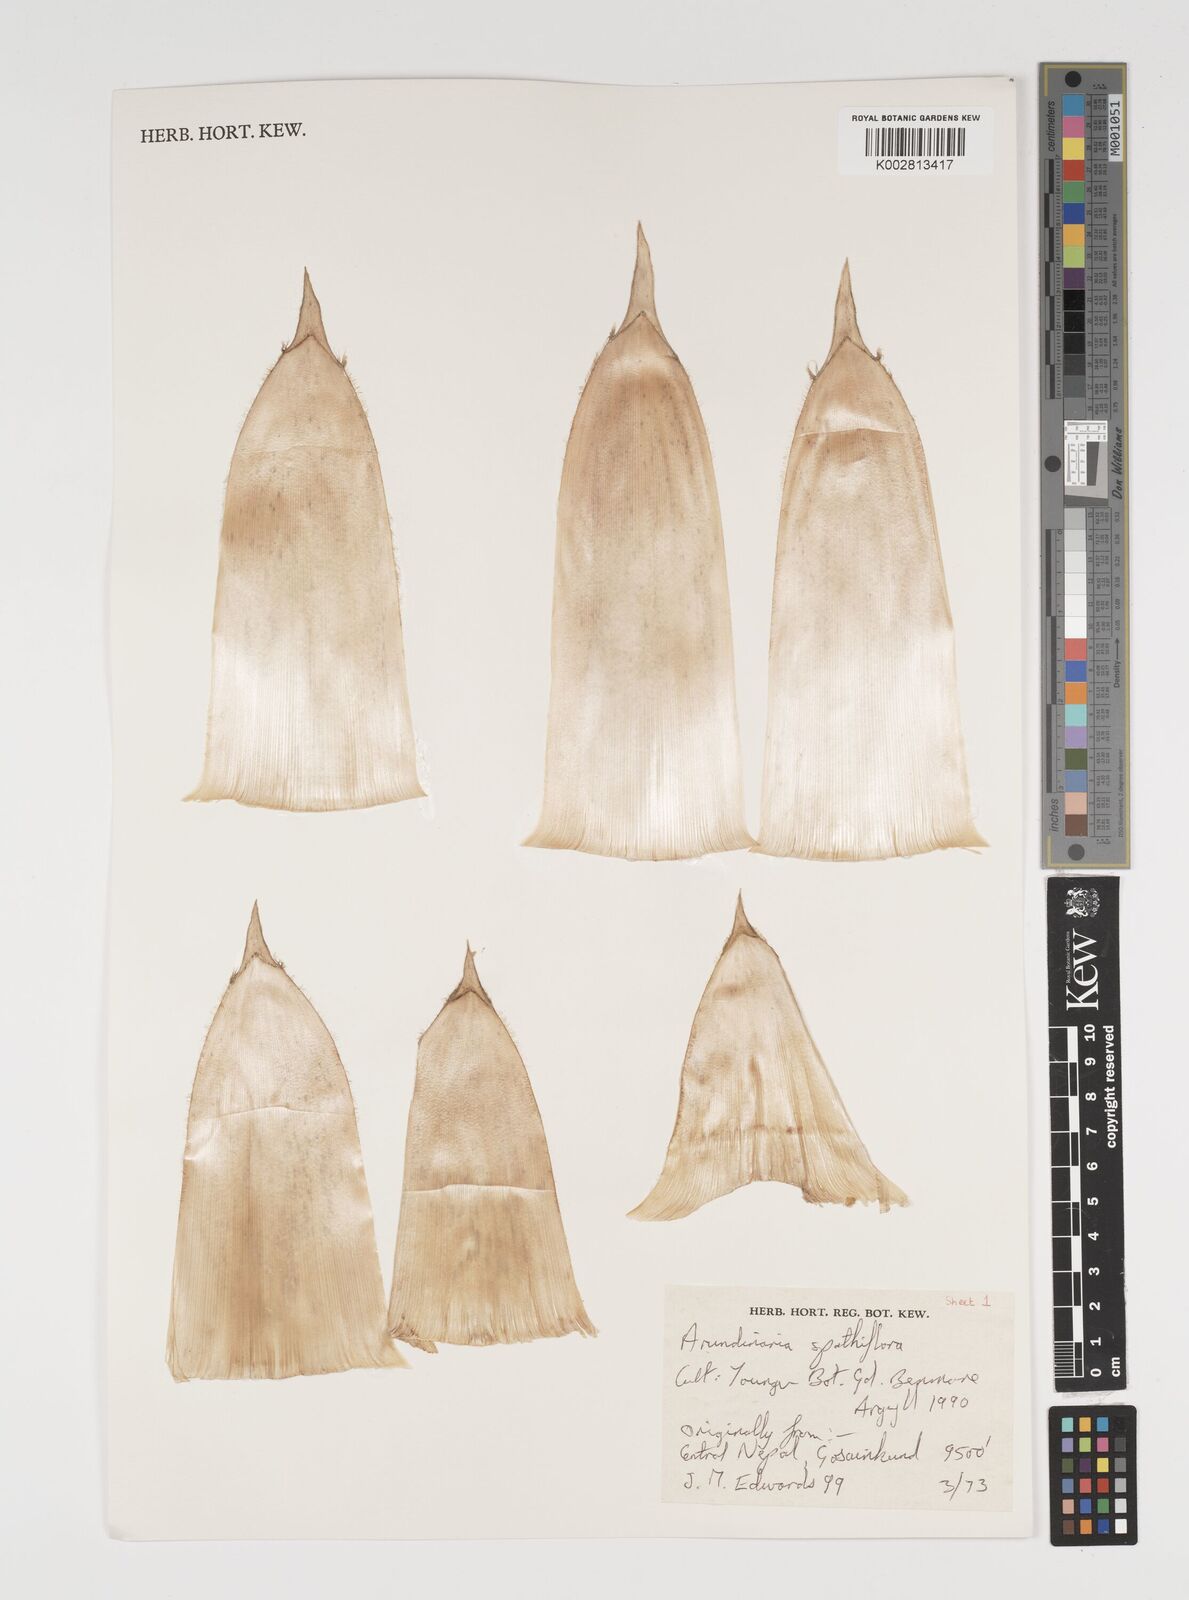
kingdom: Plantae
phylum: Tracheophyta
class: Liliopsida
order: Poales
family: Poaceae
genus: Thamnocalamus
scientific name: Thamnocalamus crassinodus
